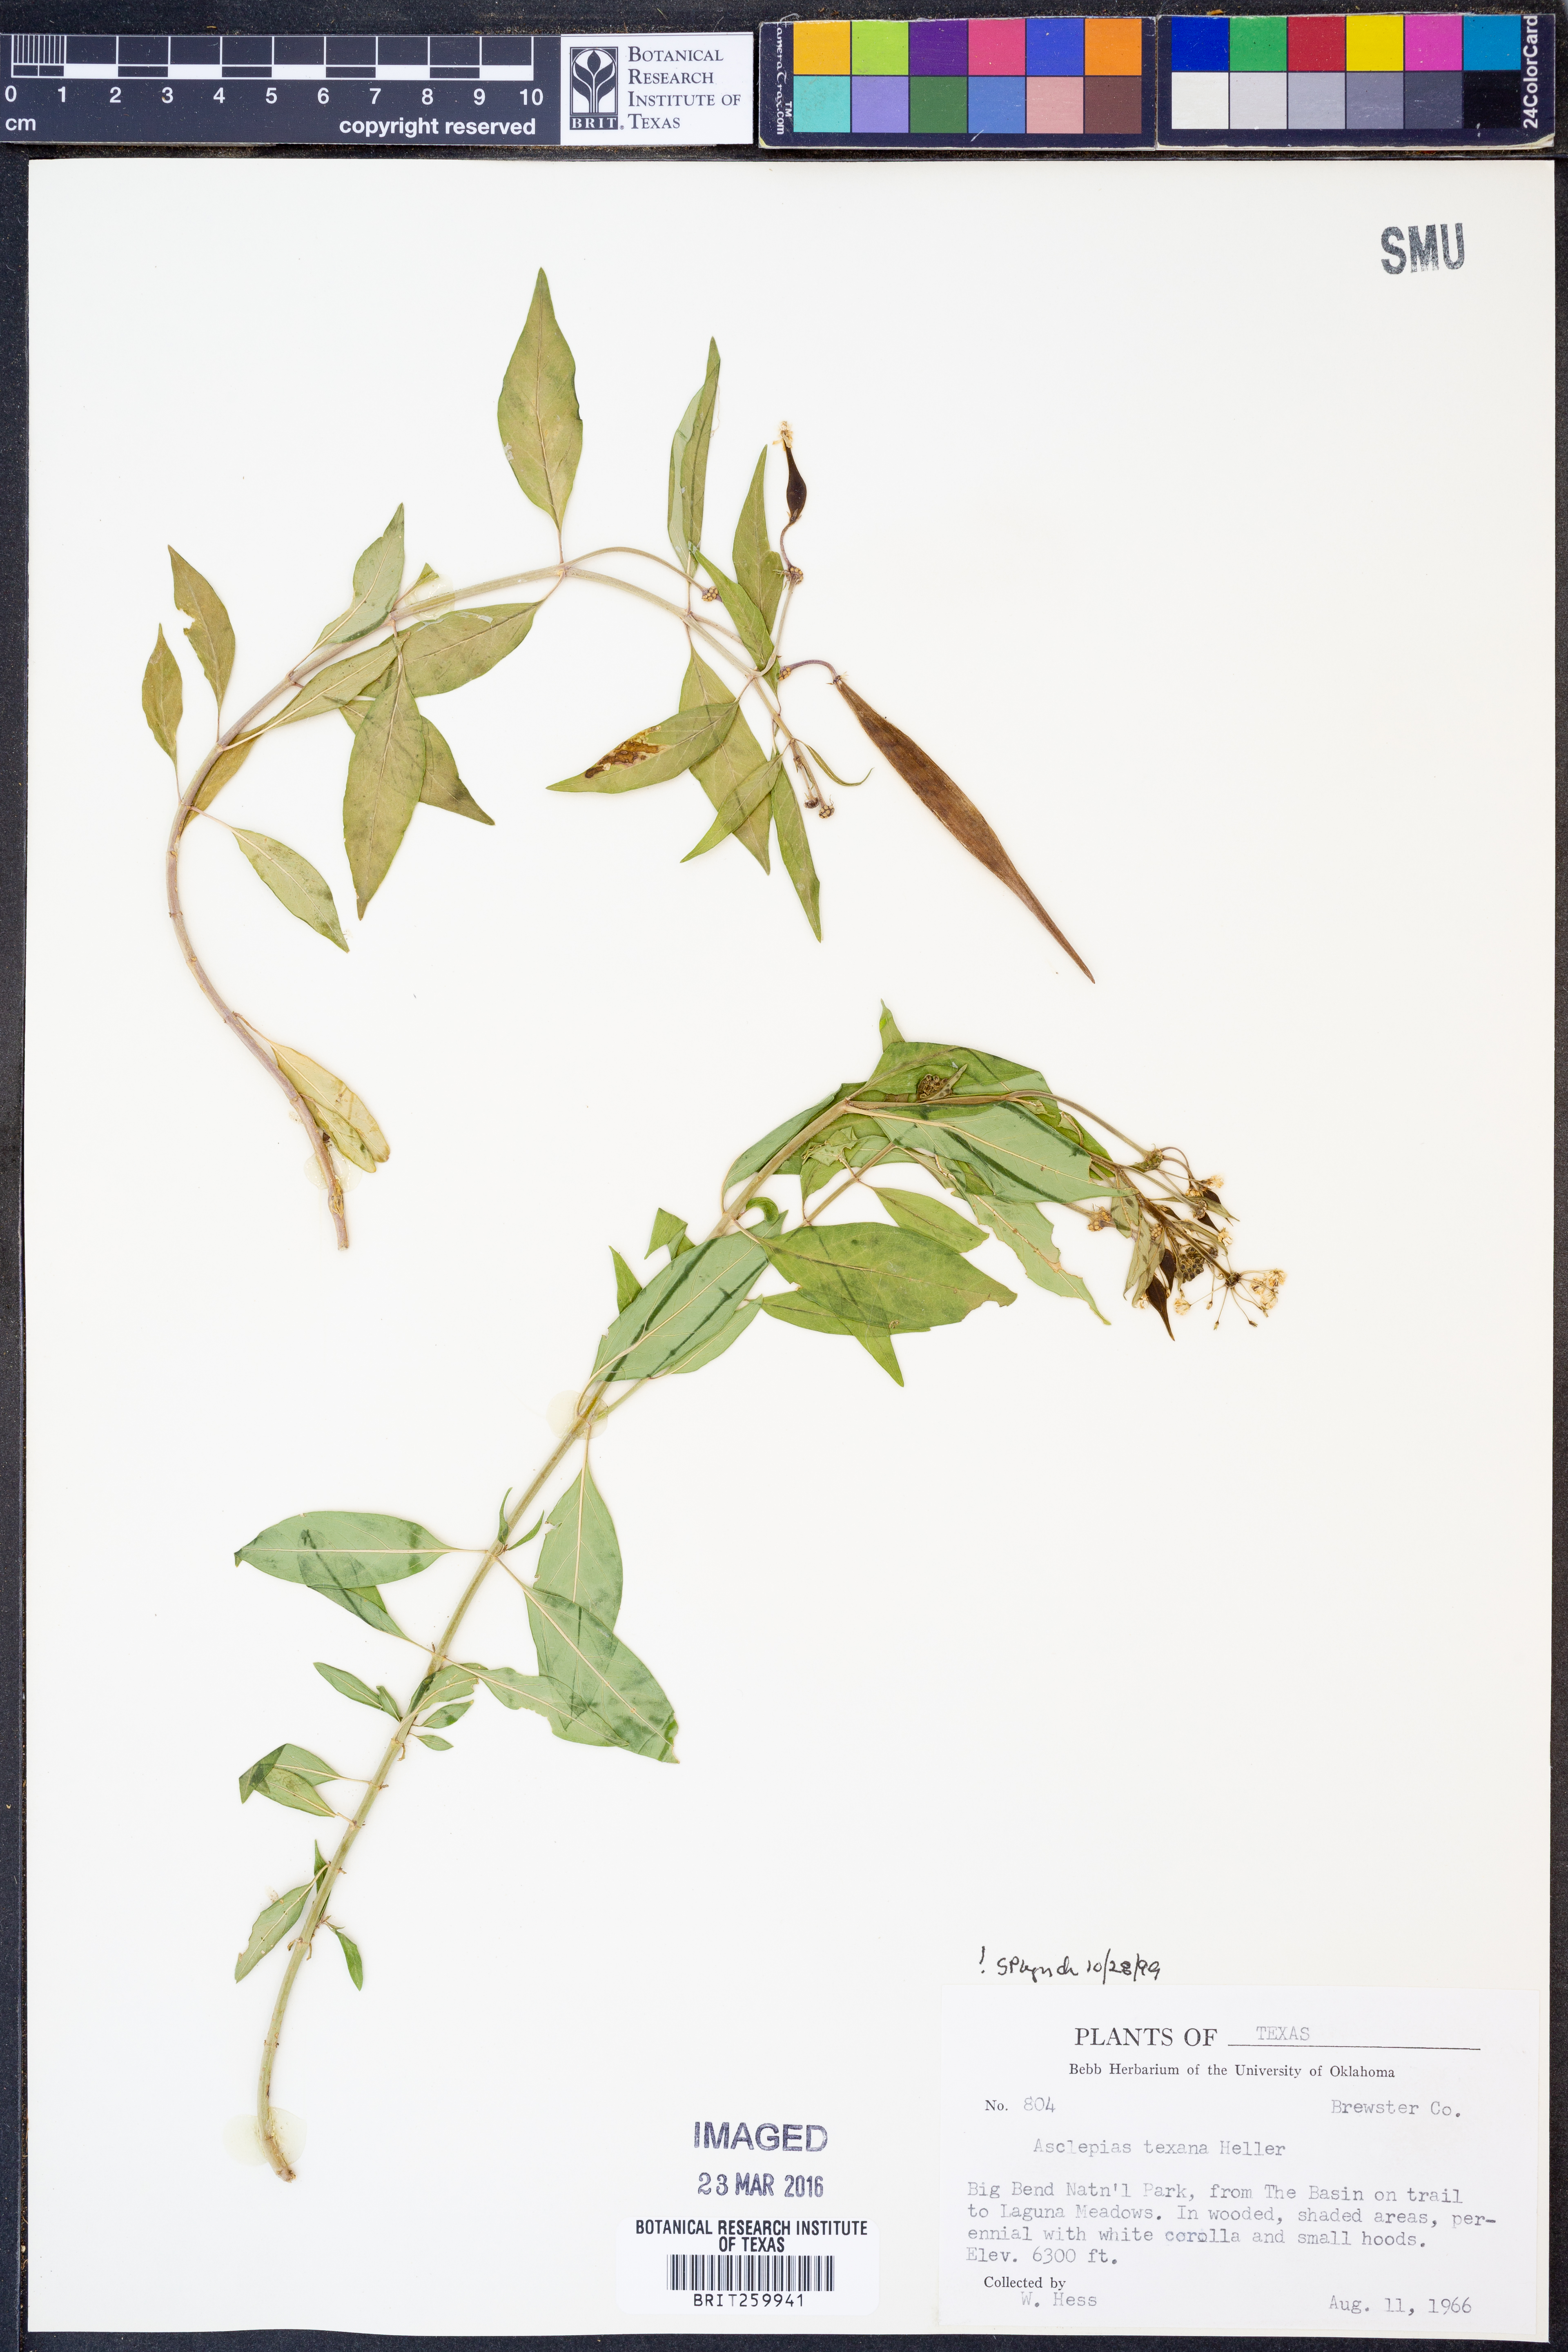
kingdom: Plantae
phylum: Tracheophyta
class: Magnoliopsida
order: Gentianales
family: Apocynaceae
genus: Asclepias
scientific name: Asclepias texana
